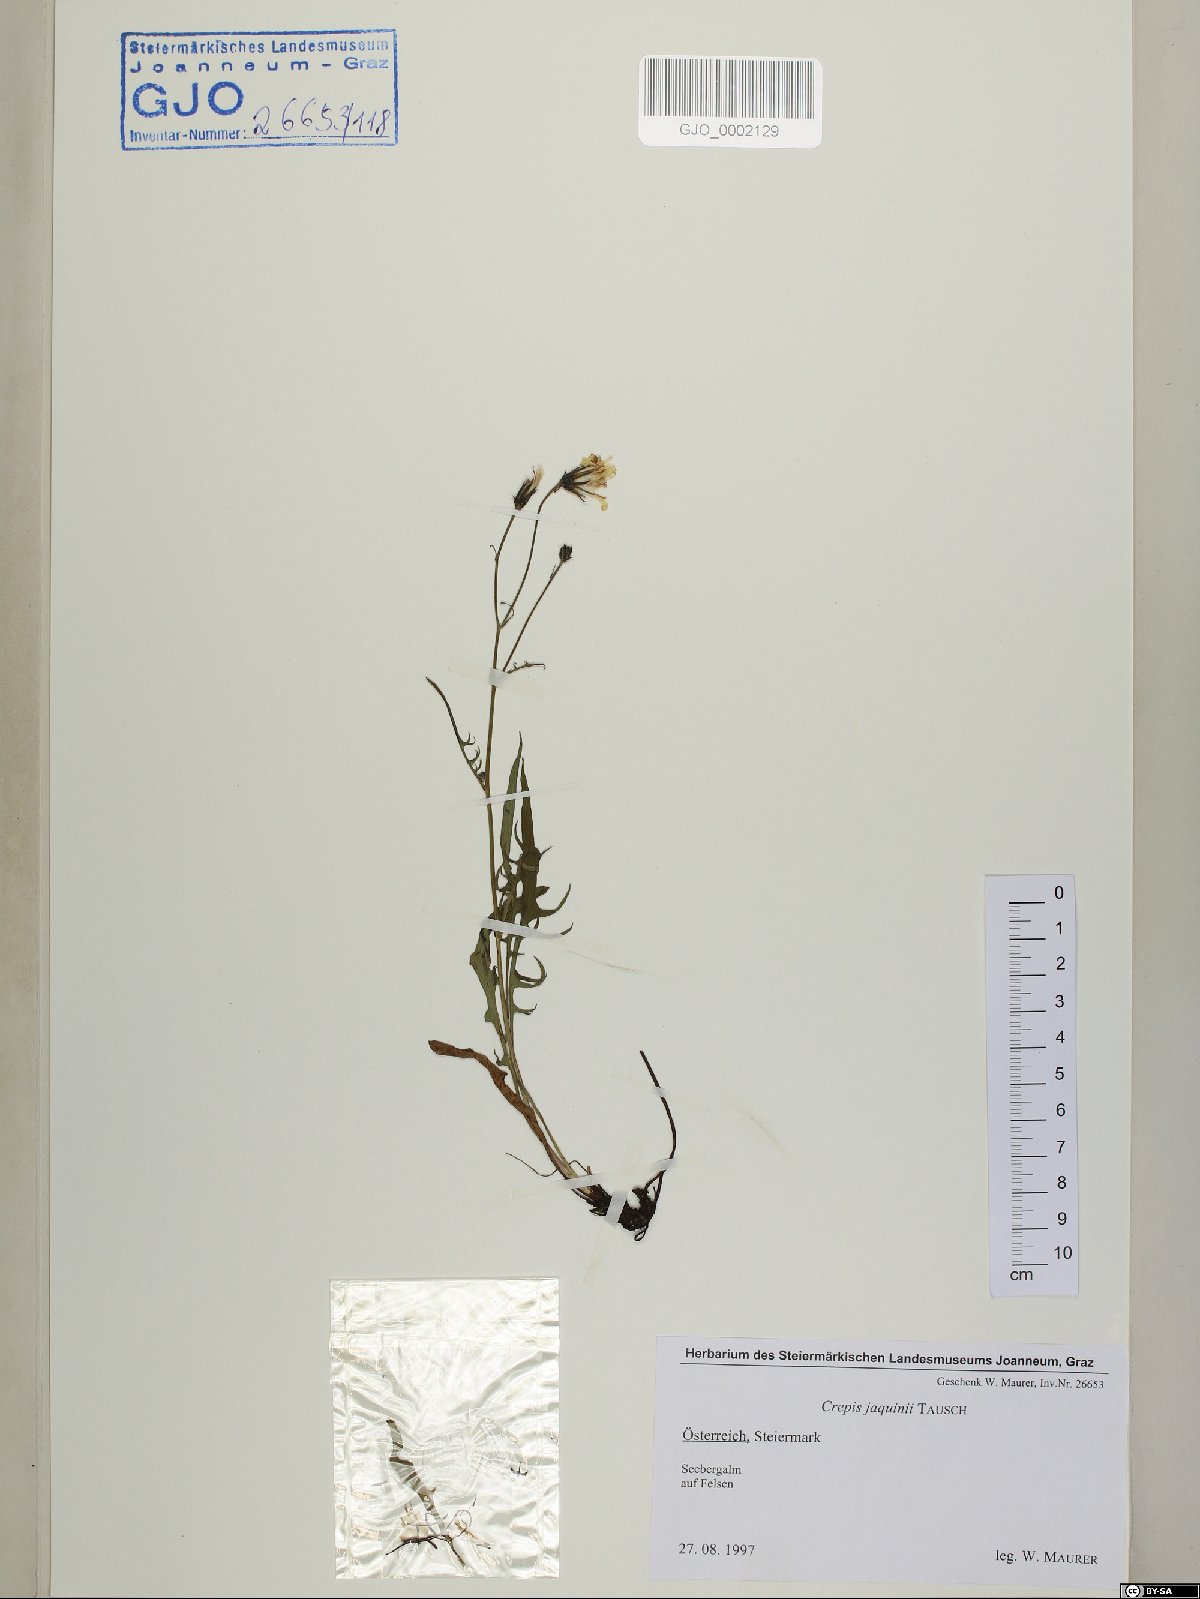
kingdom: Plantae
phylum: Tracheophyta
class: Magnoliopsida
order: Asterales
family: Asteraceae
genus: Crepis
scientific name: Crepis jacquinii
